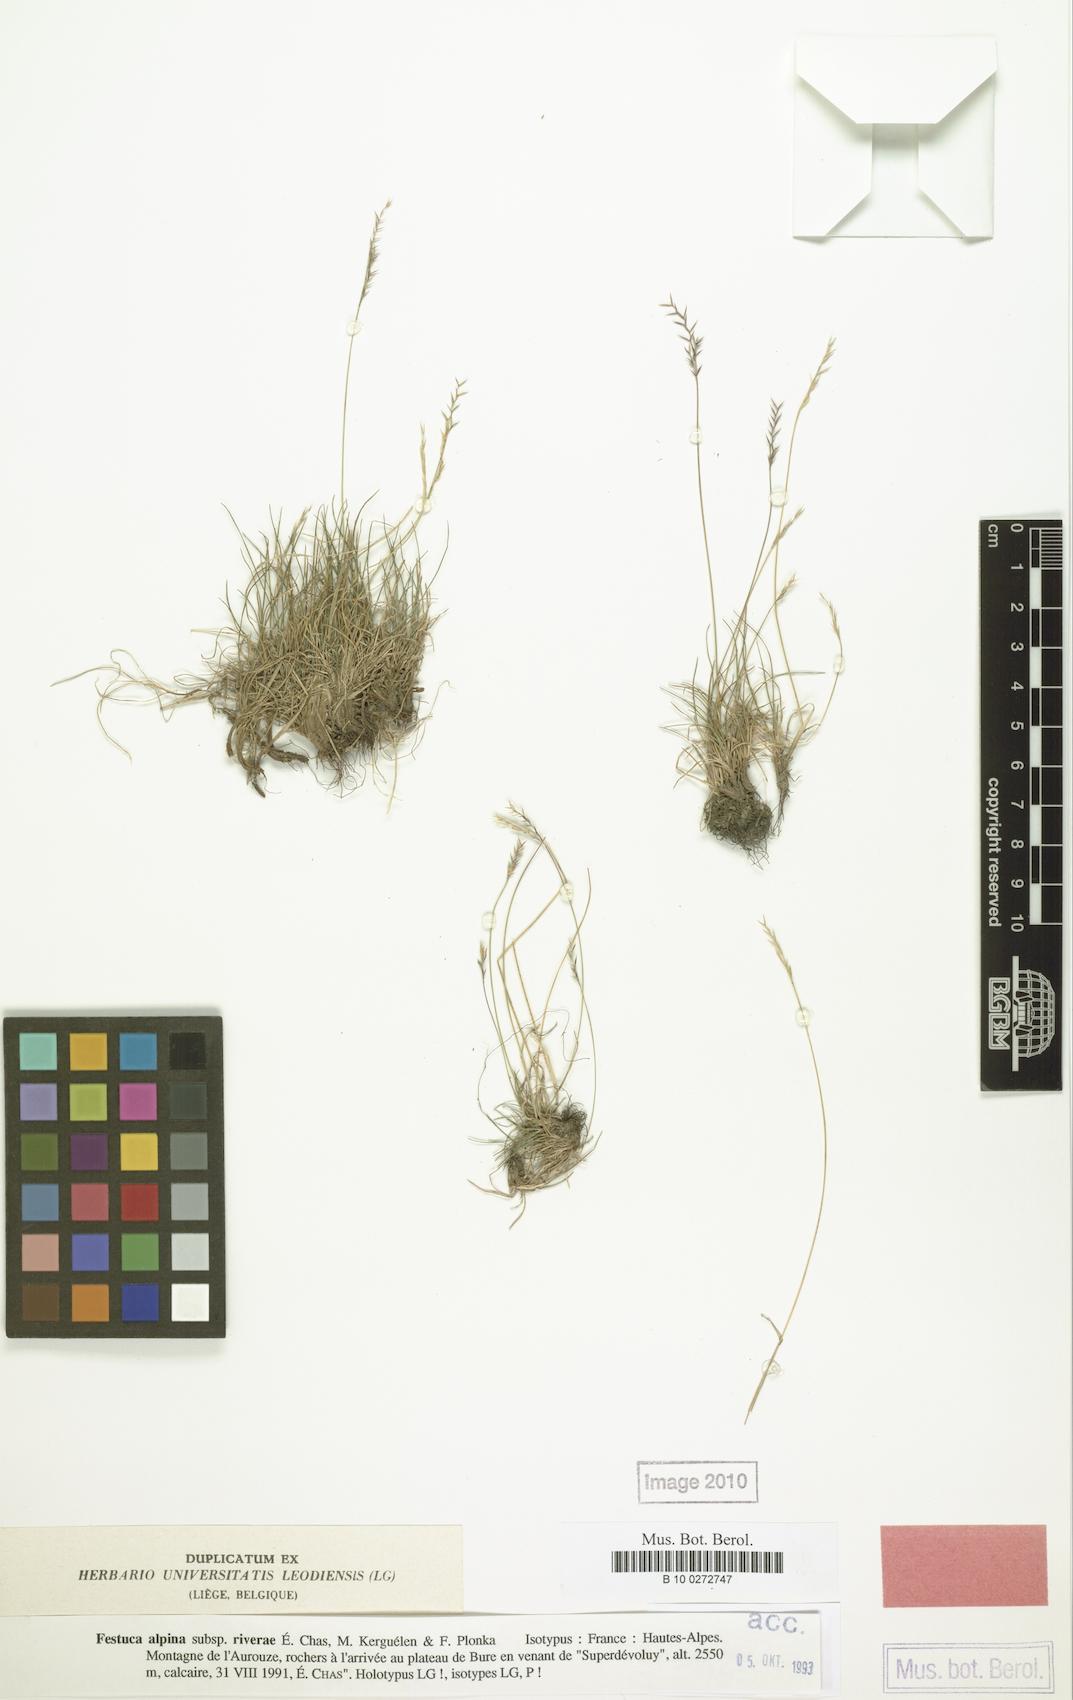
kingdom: Plantae
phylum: Tracheophyta
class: Liliopsida
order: Poales
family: Poaceae
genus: Festuca
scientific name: Festuca alpina
